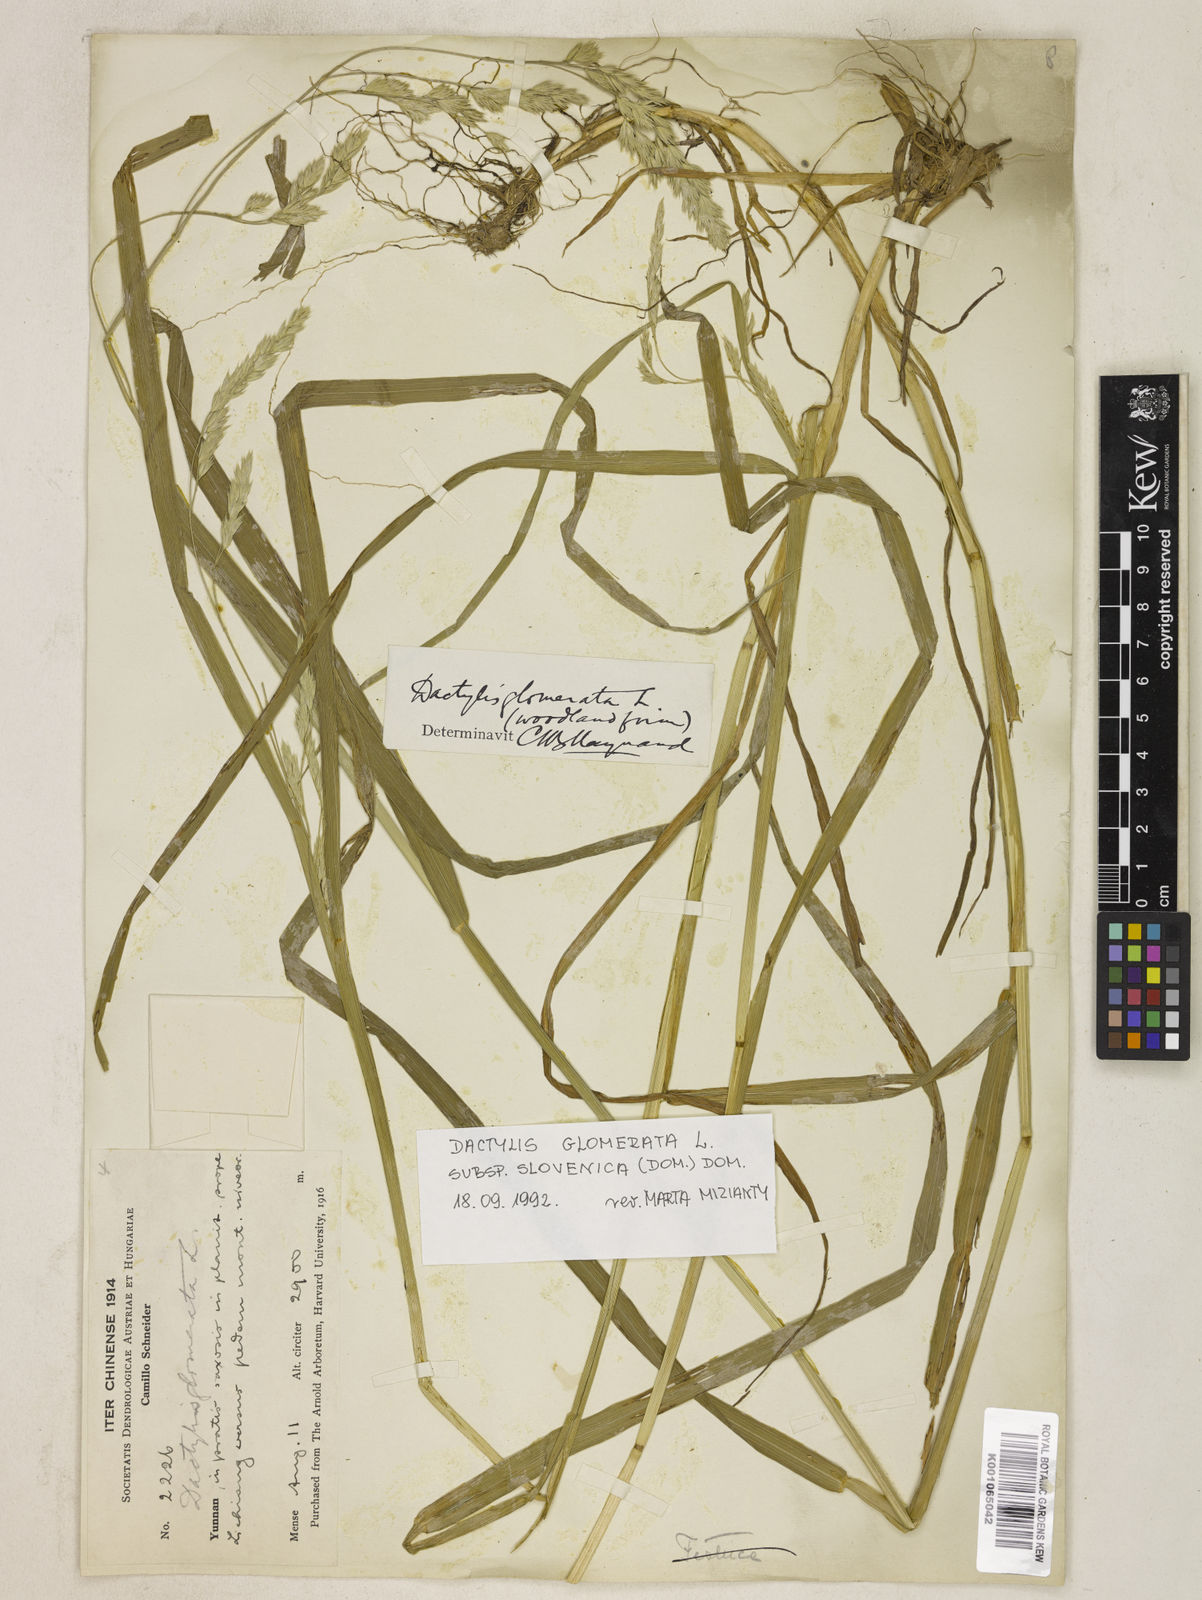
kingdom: Plantae
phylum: Tracheophyta
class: Liliopsida
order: Poales
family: Poaceae
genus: Dactylis
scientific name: Dactylis glomerata
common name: Orchardgrass
